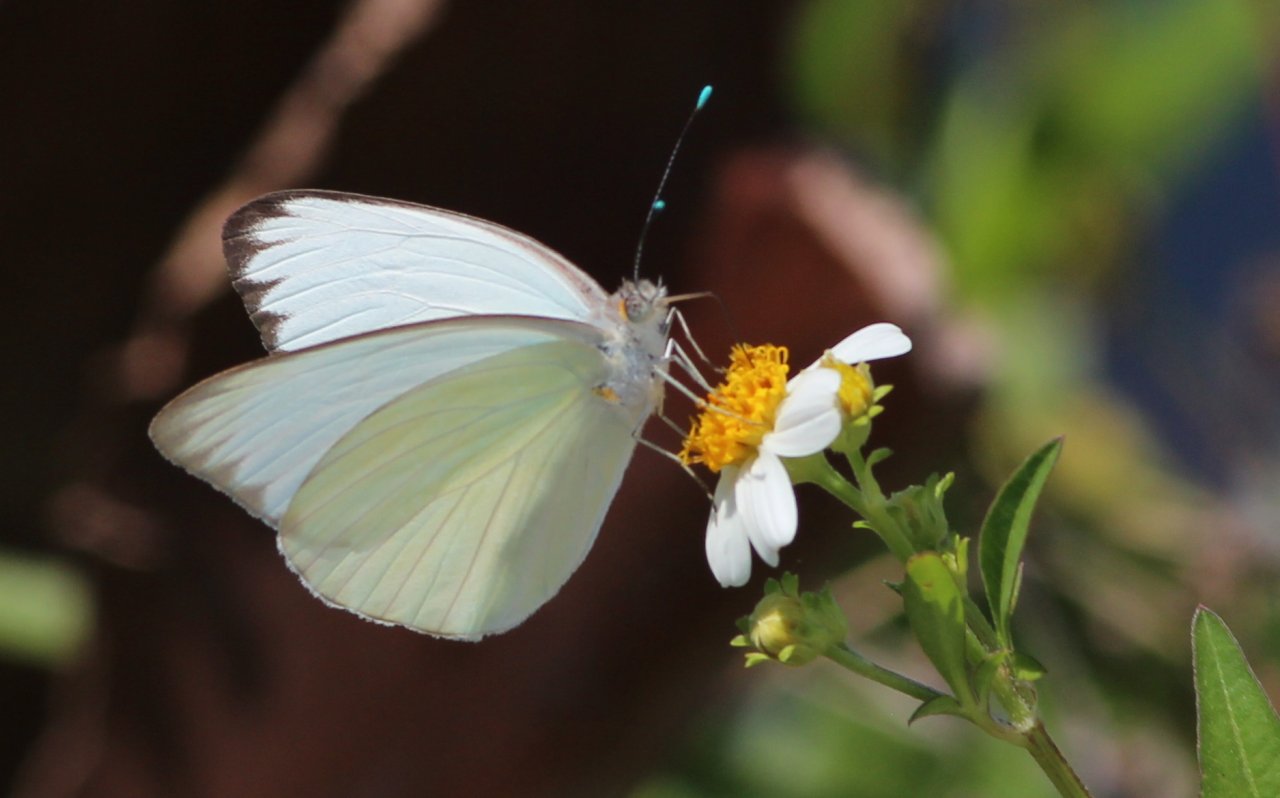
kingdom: Animalia
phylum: Arthropoda
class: Insecta
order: Lepidoptera
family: Pieridae
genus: Glutophrissa
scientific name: Glutophrissa drusilla
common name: Florida White
